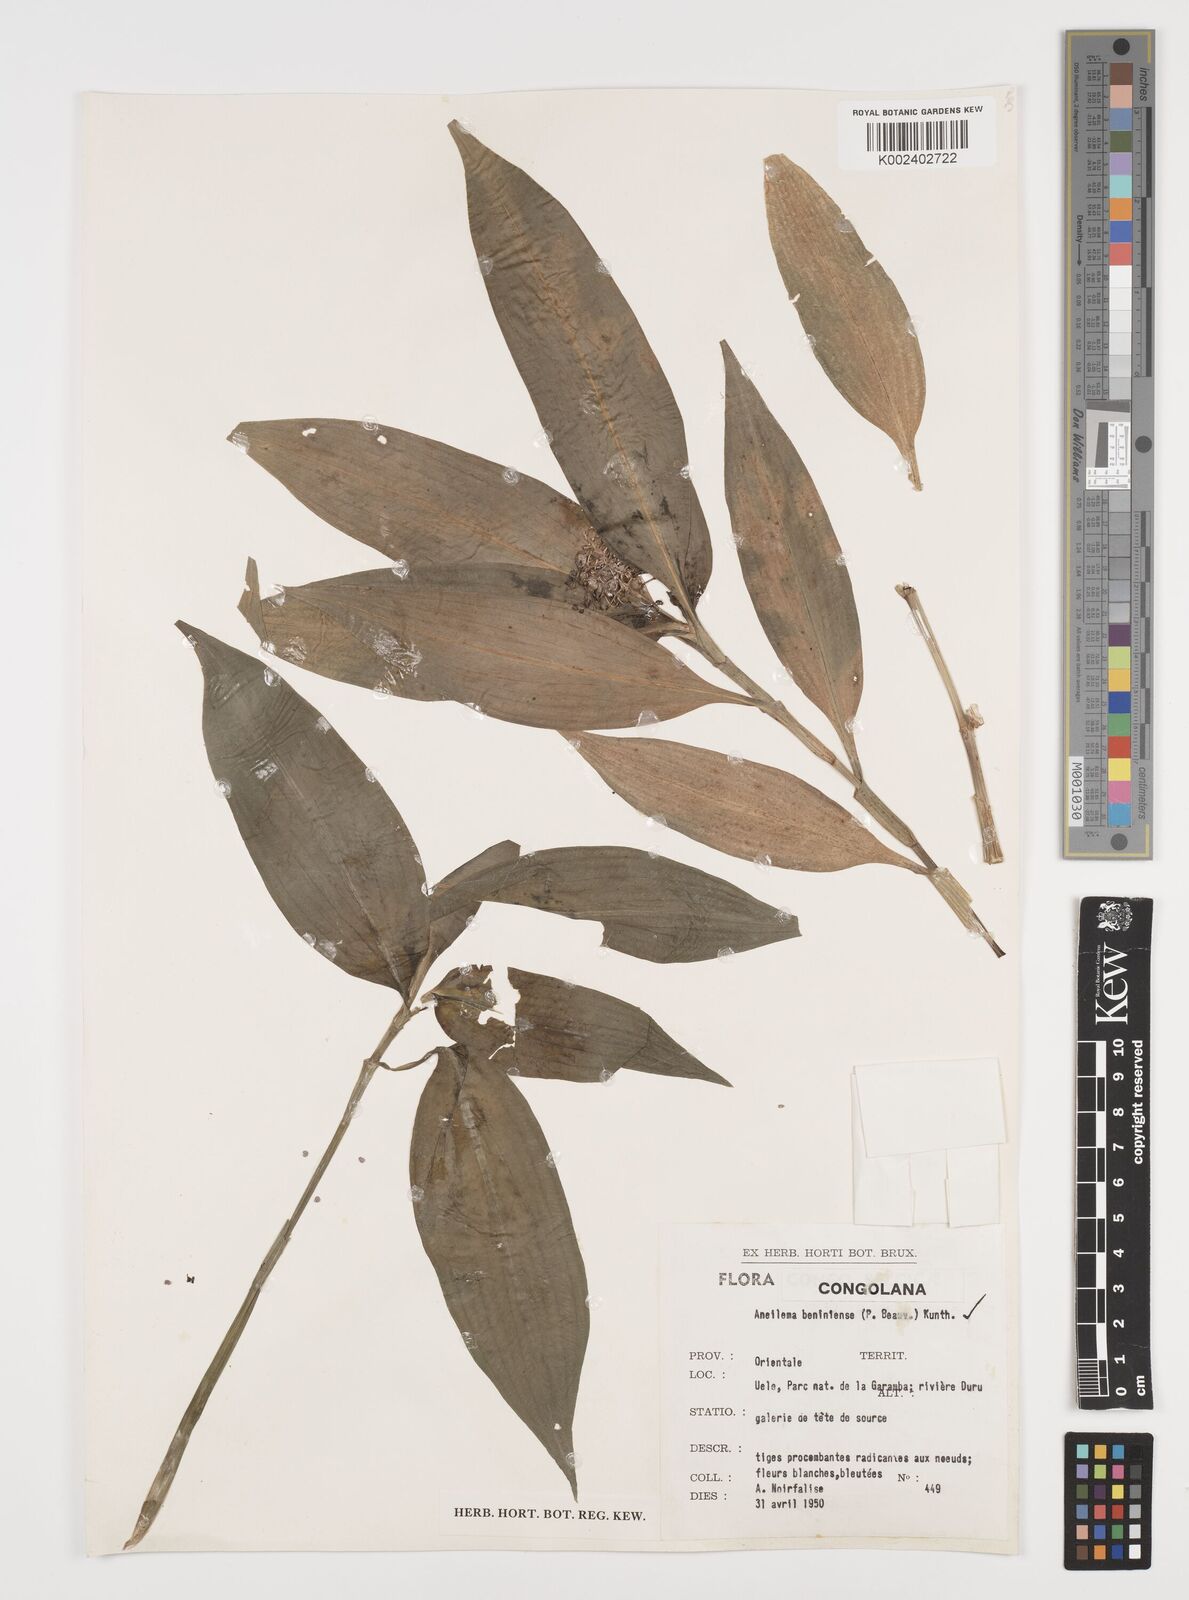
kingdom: Plantae
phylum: Tracheophyta
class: Liliopsida
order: Commelinales
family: Commelinaceae
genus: Aneilema
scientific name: Aneilema beniniense
